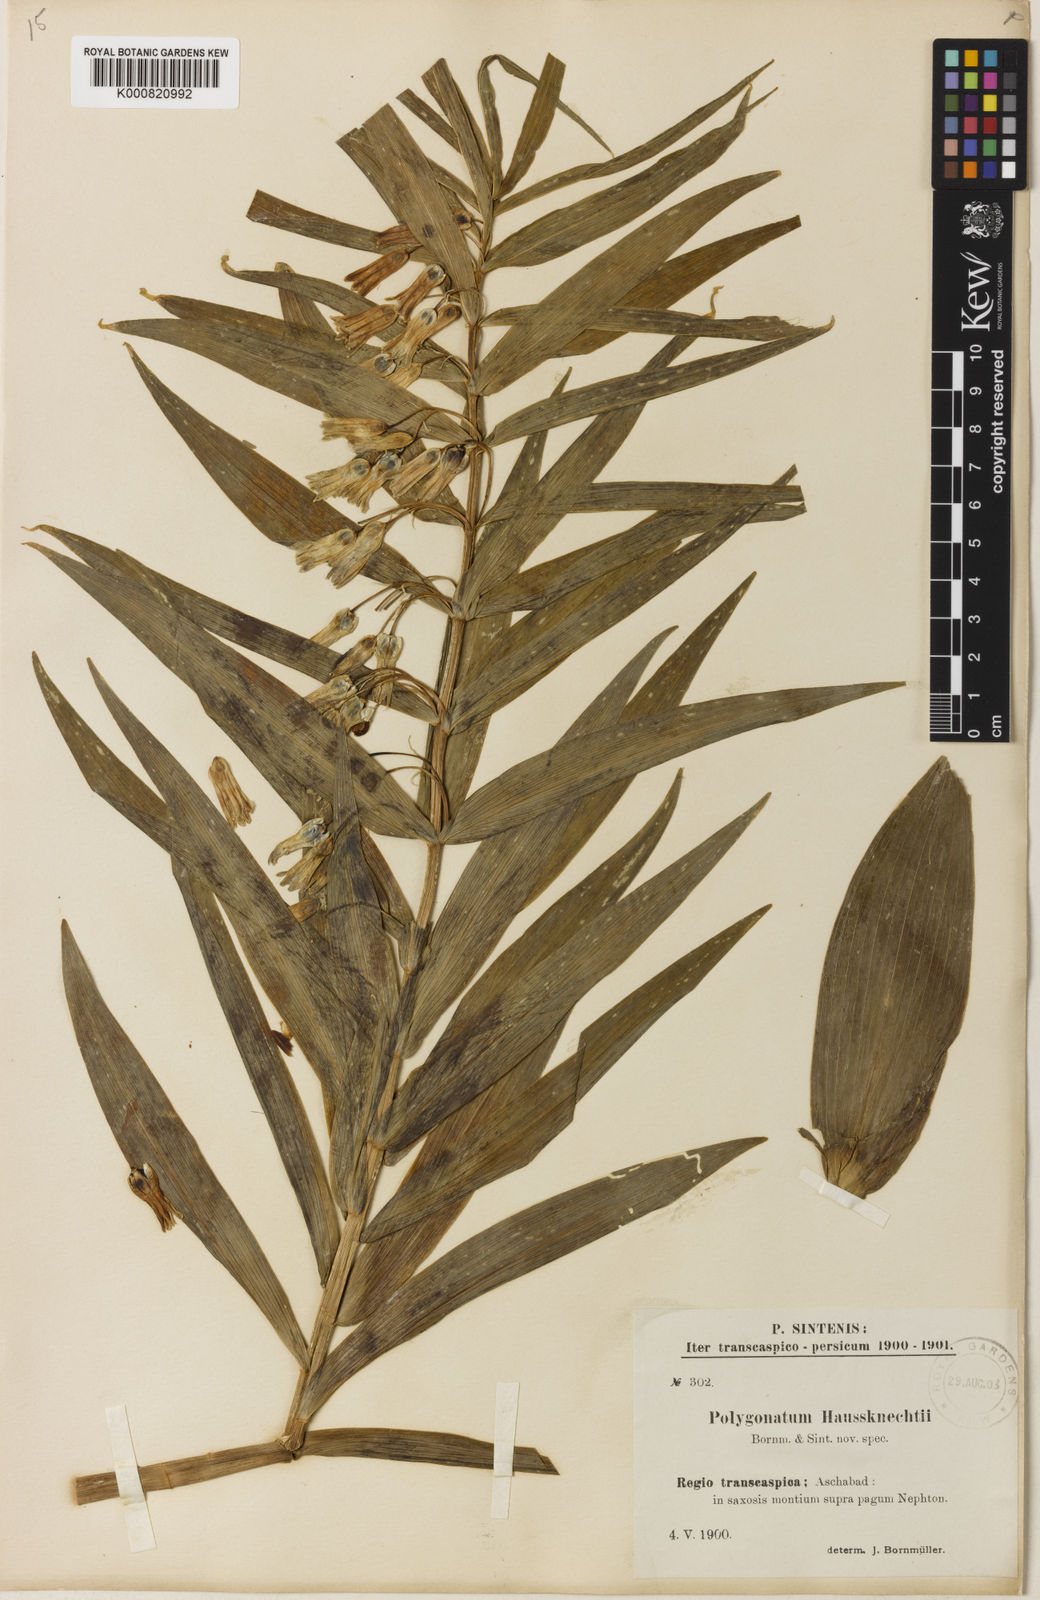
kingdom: Plantae
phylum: Tracheophyta
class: Liliopsida
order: Asparagales
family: Asparagaceae
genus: Polygonatum
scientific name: Polygonatum sewerzowii
